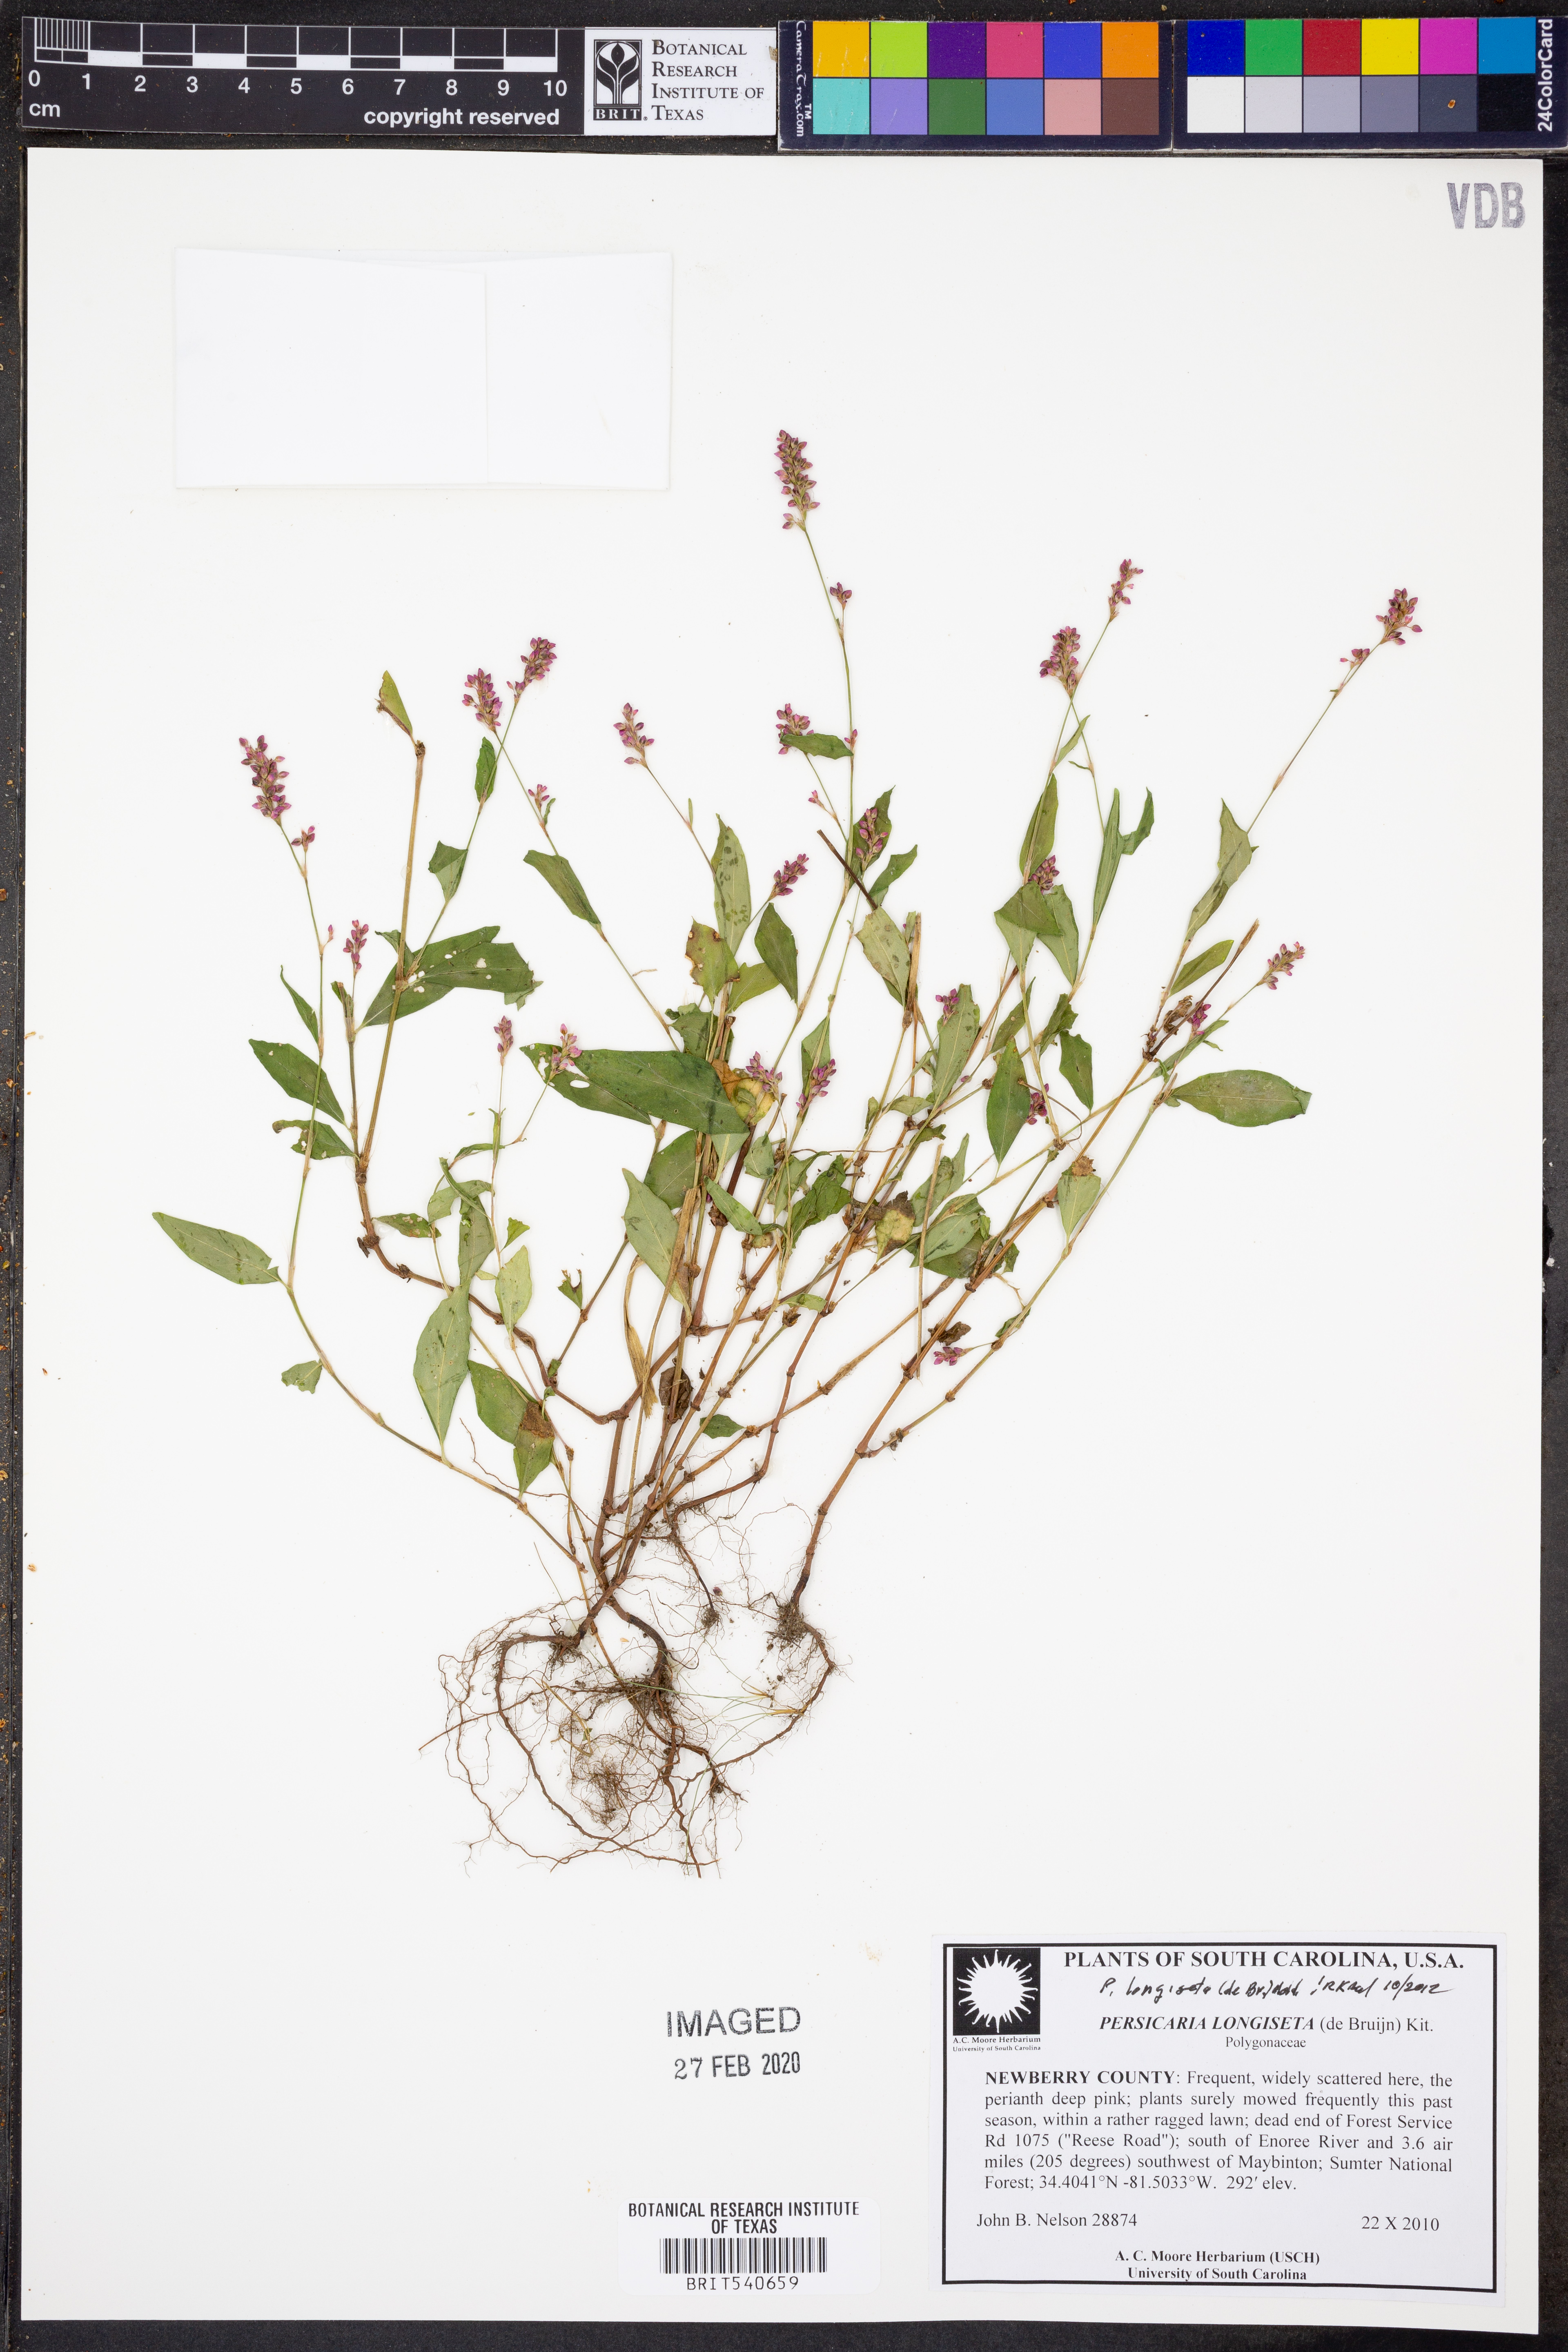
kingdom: Plantae
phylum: Tracheophyta
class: Magnoliopsida
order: Caryophyllales
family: Polygonaceae
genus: Persicaria
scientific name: Persicaria longiseta
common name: Bristly lady's-thumb
